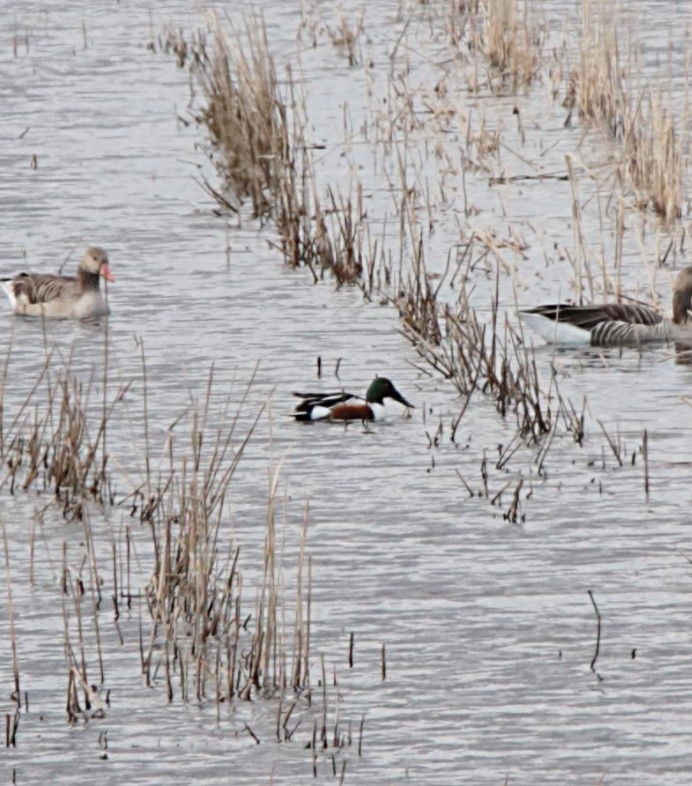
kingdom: Animalia
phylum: Chordata
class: Aves
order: Anseriformes
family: Anatidae
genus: Spatula
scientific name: Spatula clypeata
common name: Skeand
